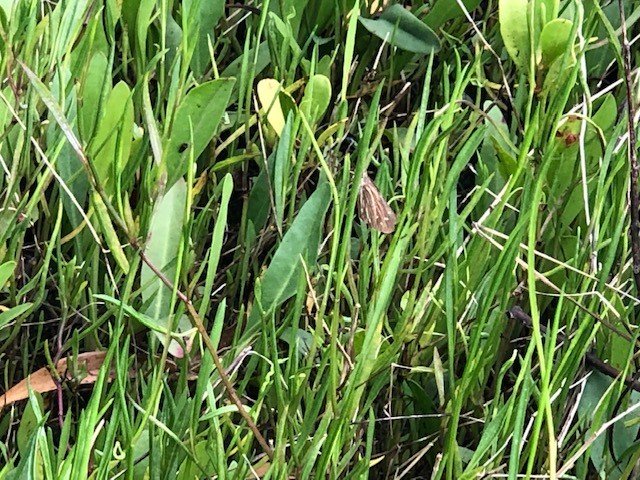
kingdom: Animalia
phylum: Arthropoda
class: Insecta
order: Lepidoptera
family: Hesperiidae
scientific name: Hesperiidae
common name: Skippers
